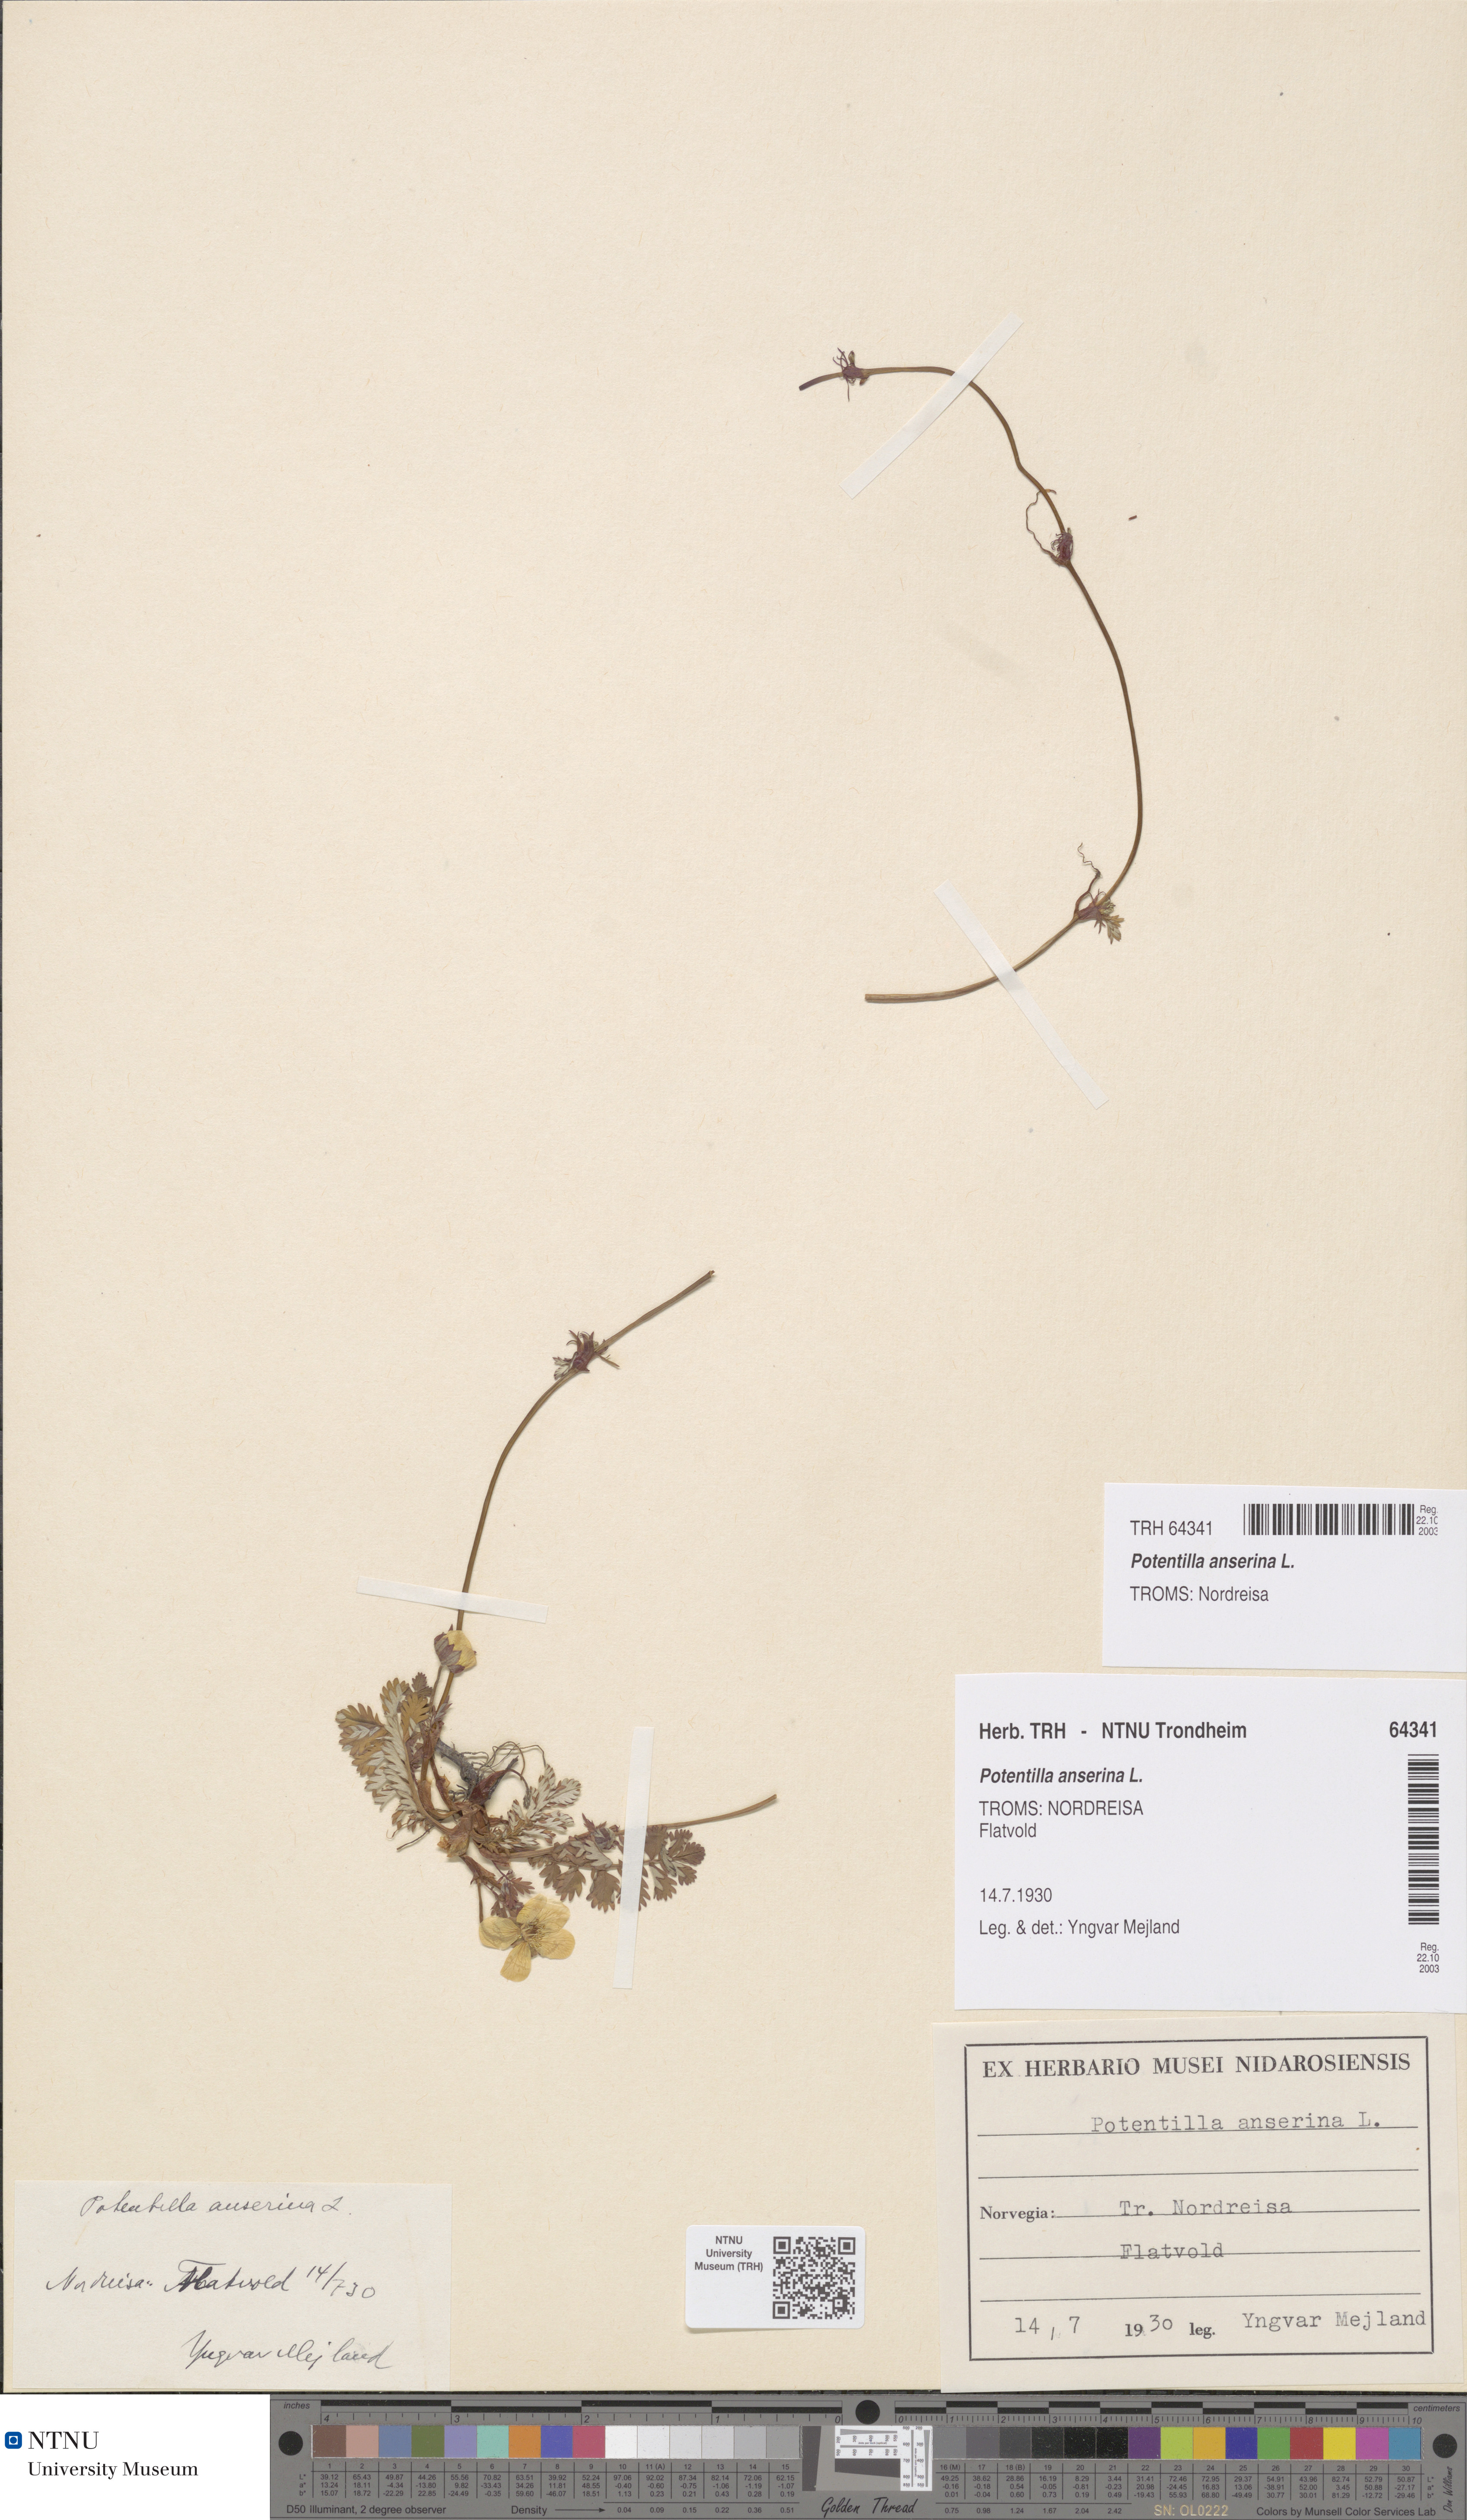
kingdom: Plantae
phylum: Tracheophyta
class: Magnoliopsida
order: Rosales
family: Rosaceae
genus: Argentina
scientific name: Argentina anserina
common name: Common silverweed
